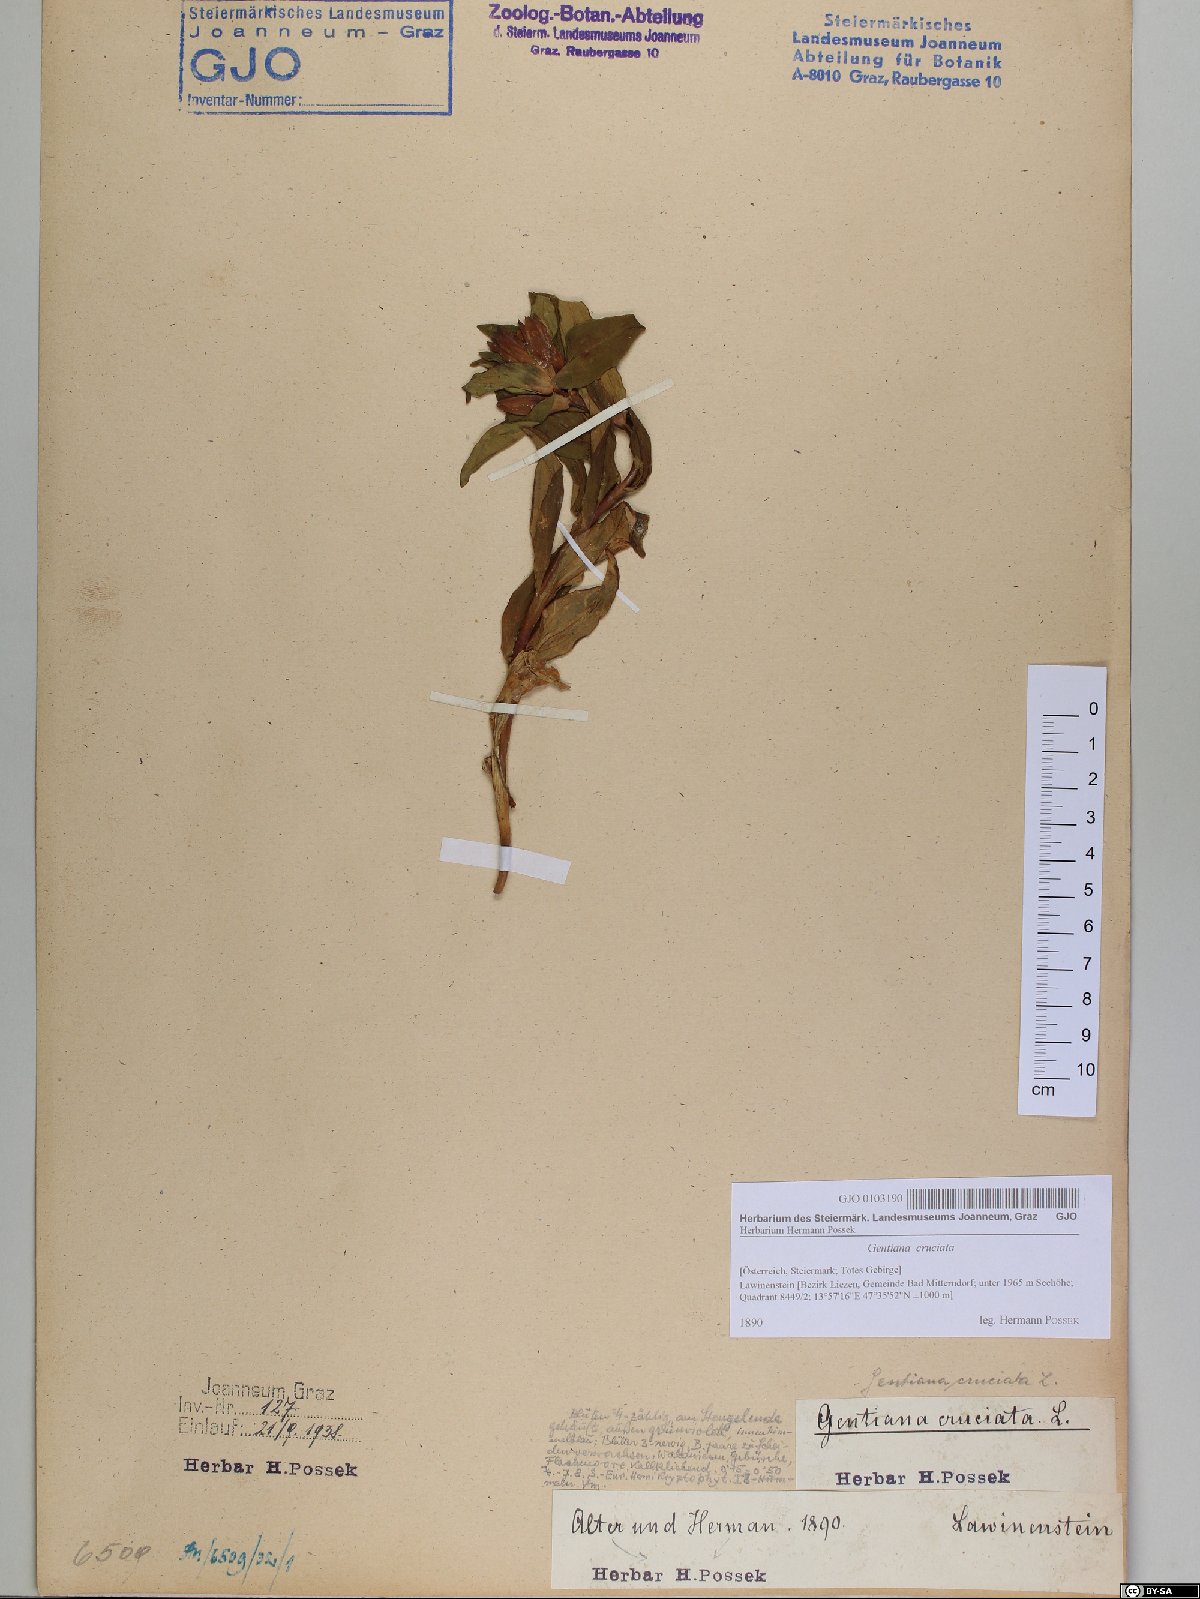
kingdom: Plantae
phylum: Tracheophyta
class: Magnoliopsida
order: Gentianales
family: Gentianaceae
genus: Gentiana
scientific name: Gentiana cruciata
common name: Cross gentian
